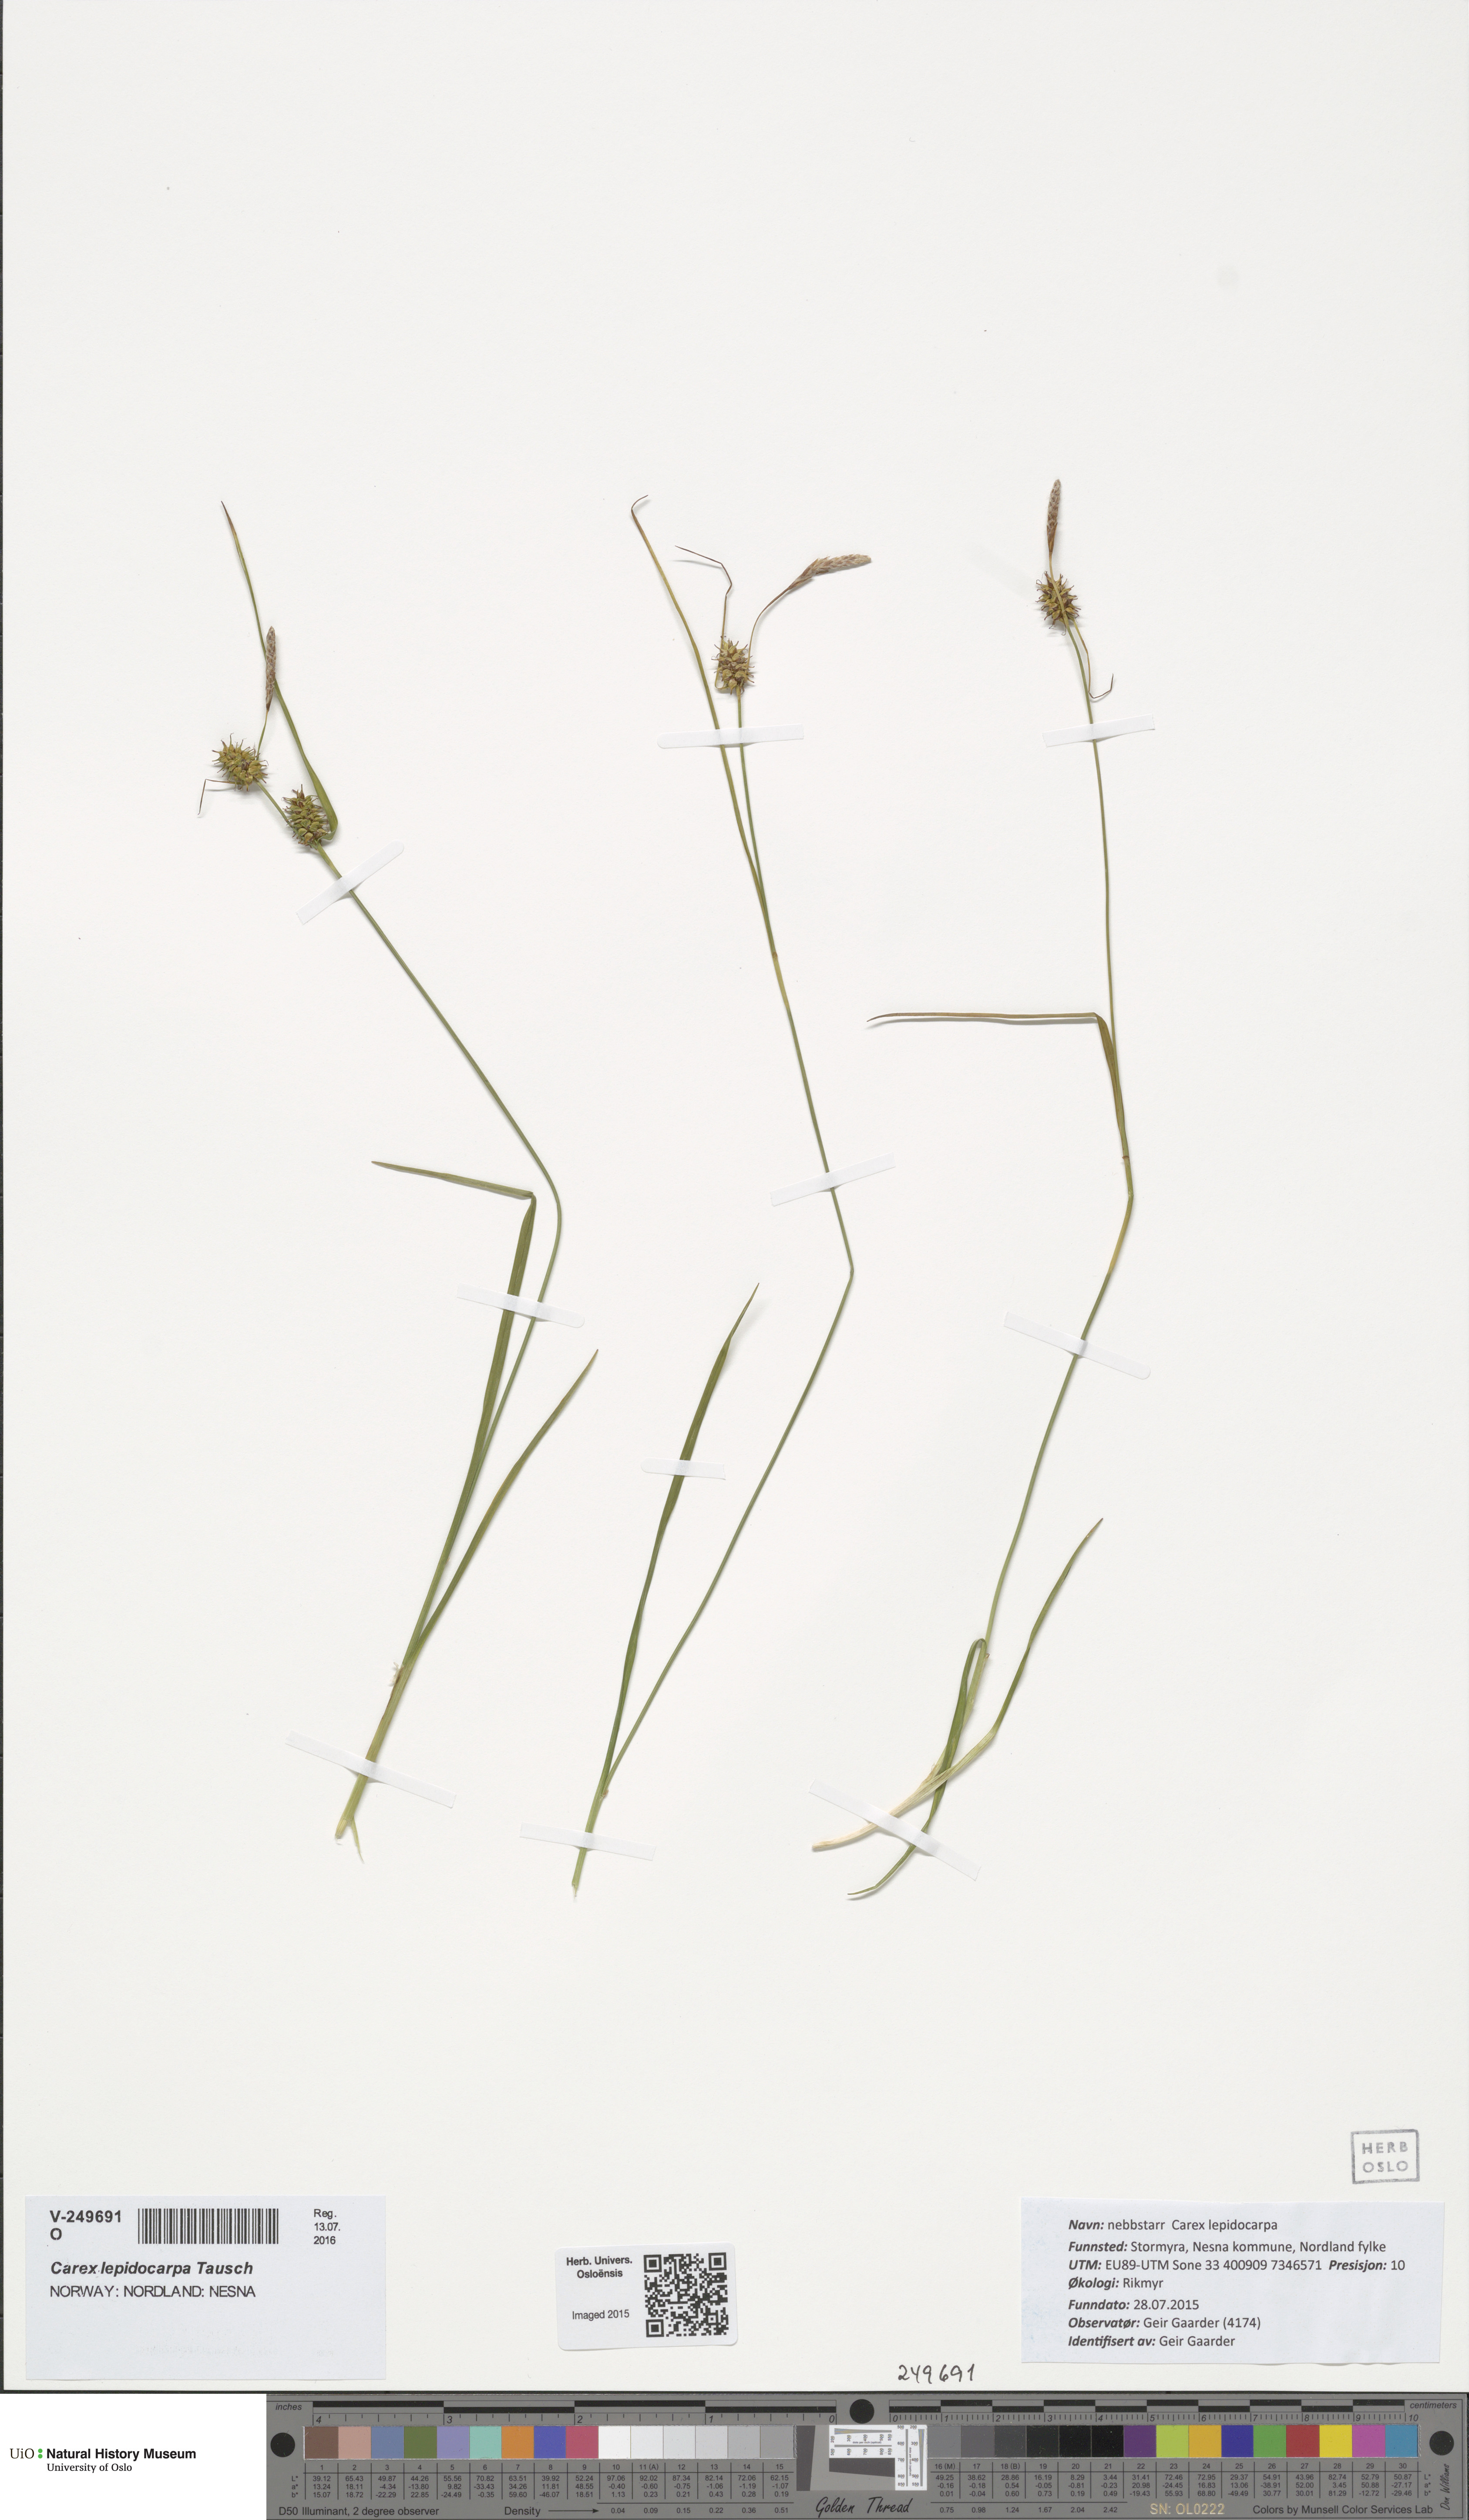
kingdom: Plantae
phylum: Tracheophyta
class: Liliopsida
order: Poales
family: Cyperaceae
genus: Carex
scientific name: Carex lepidocarpa
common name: Long-stalked yellow-sedge
